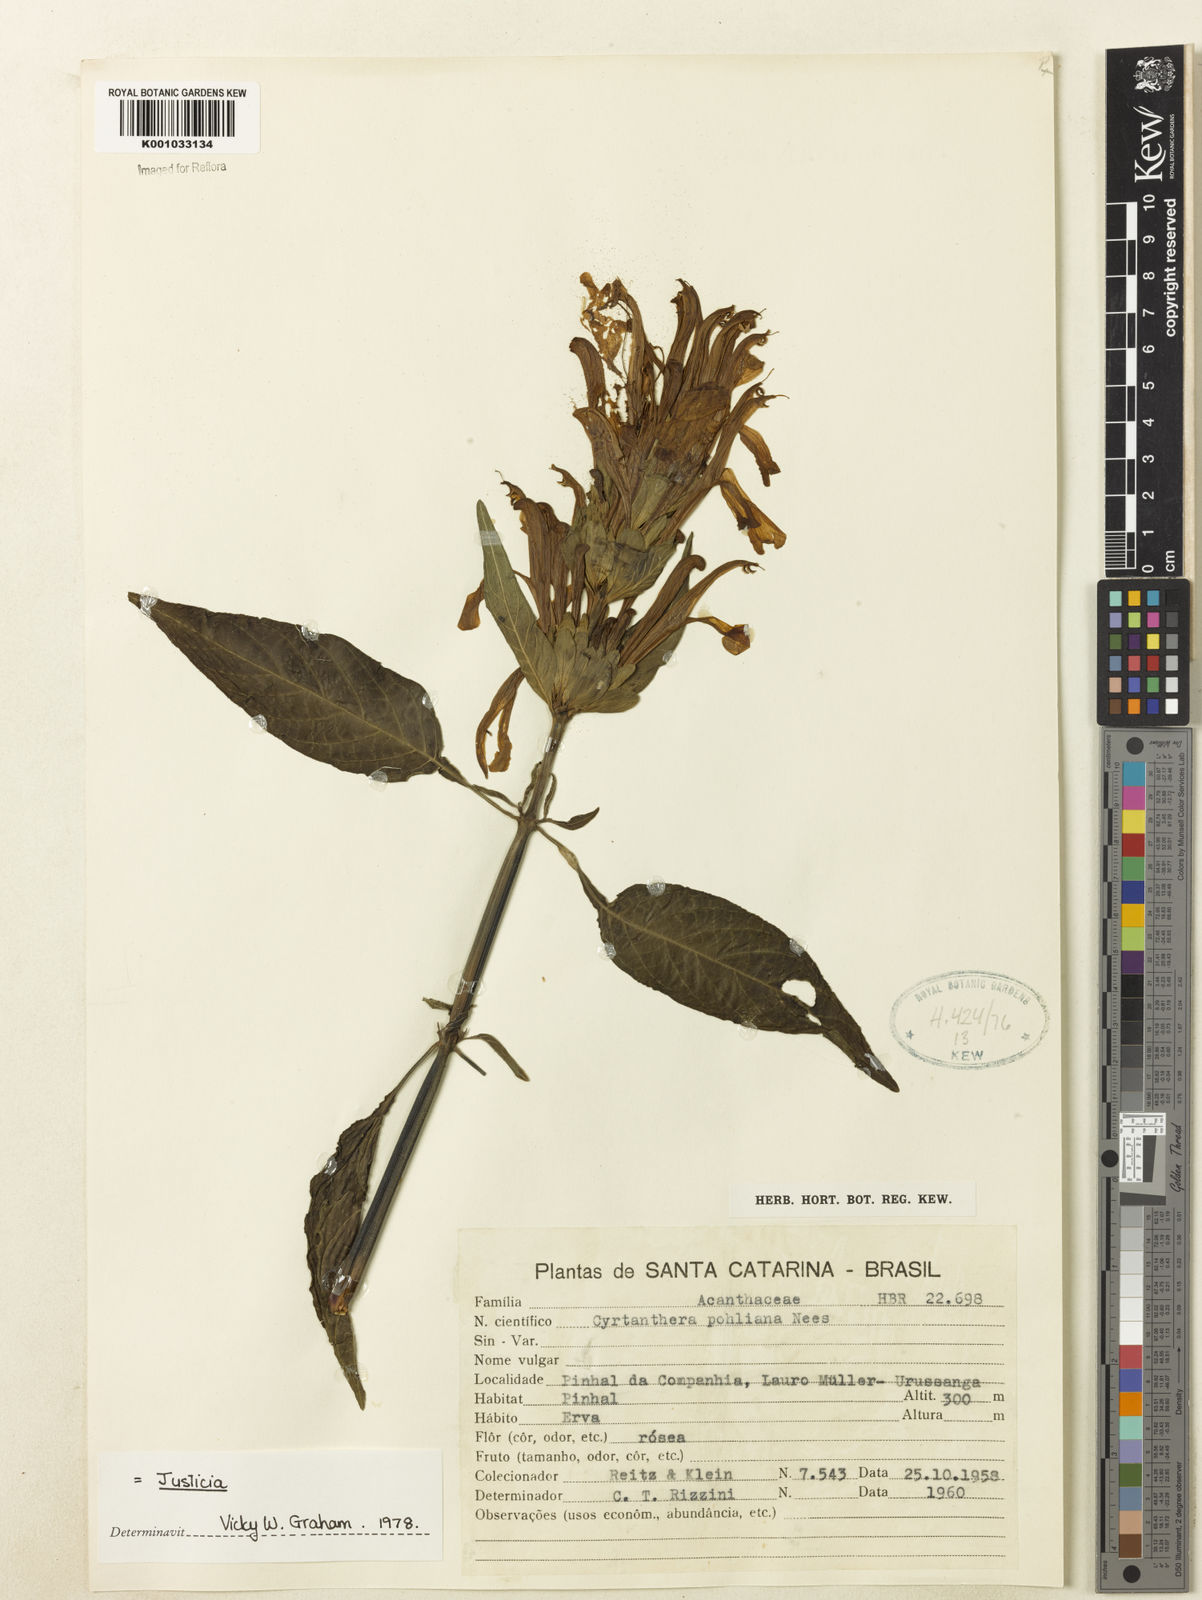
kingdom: Plantae
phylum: Tracheophyta
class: Magnoliopsida
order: Lamiales
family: Acanthaceae
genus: Justicia
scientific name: Justicia carnea
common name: Brazilian-plume
